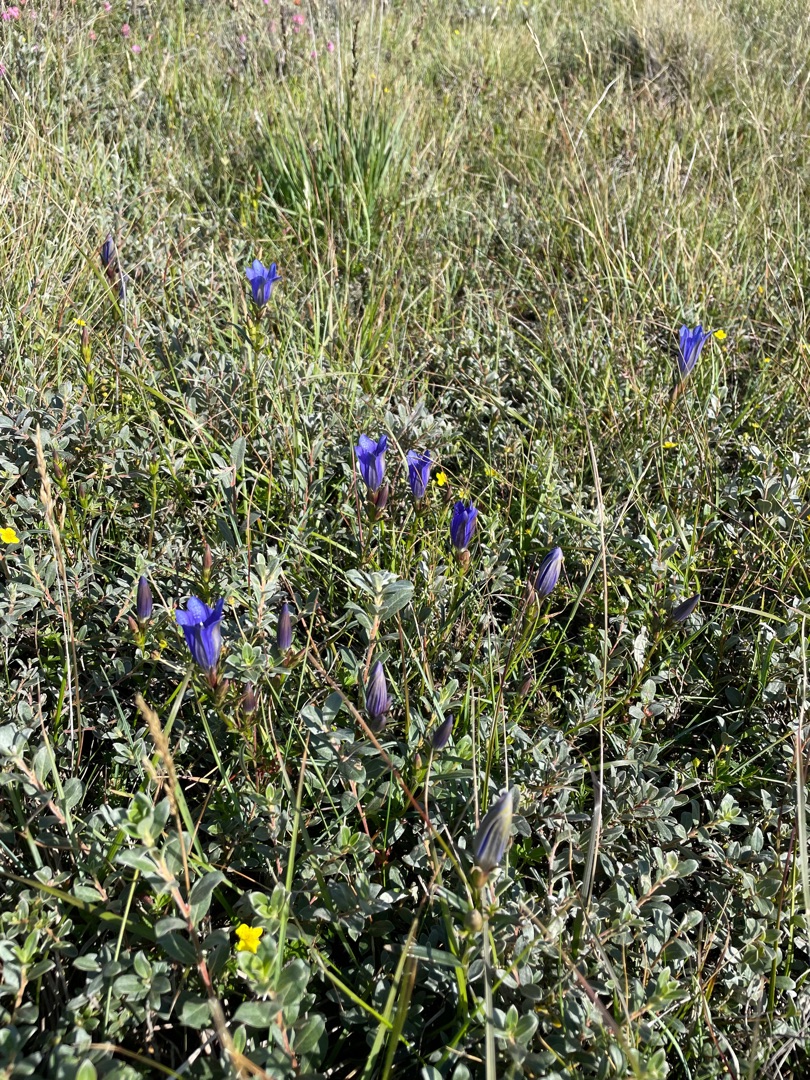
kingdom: Plantae
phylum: Tracheophyta
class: Magnoliopsida
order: Gentianales
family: Gentianaceae
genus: Gentiana
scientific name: Gentiana pneumonanthe
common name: Klokke-ensian
